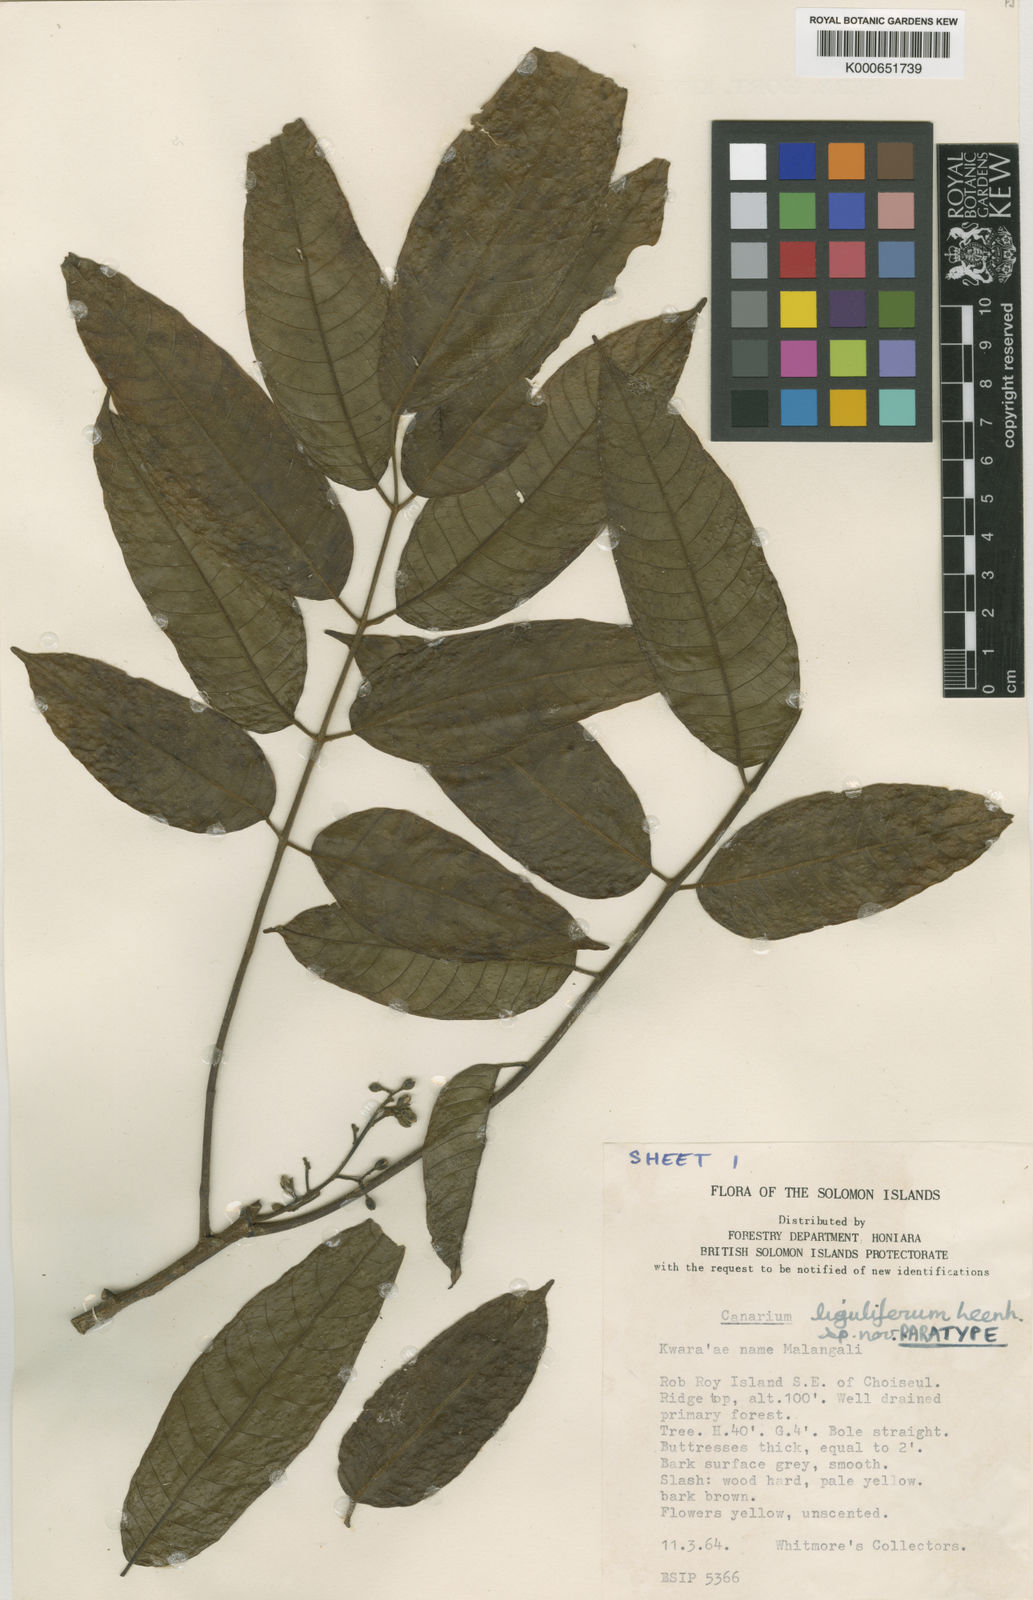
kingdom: Plantae
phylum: Tracheophyta
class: Magnoliopsida
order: Sapindales
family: Burseraceae
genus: Canarium
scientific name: Canarium liguliferum
